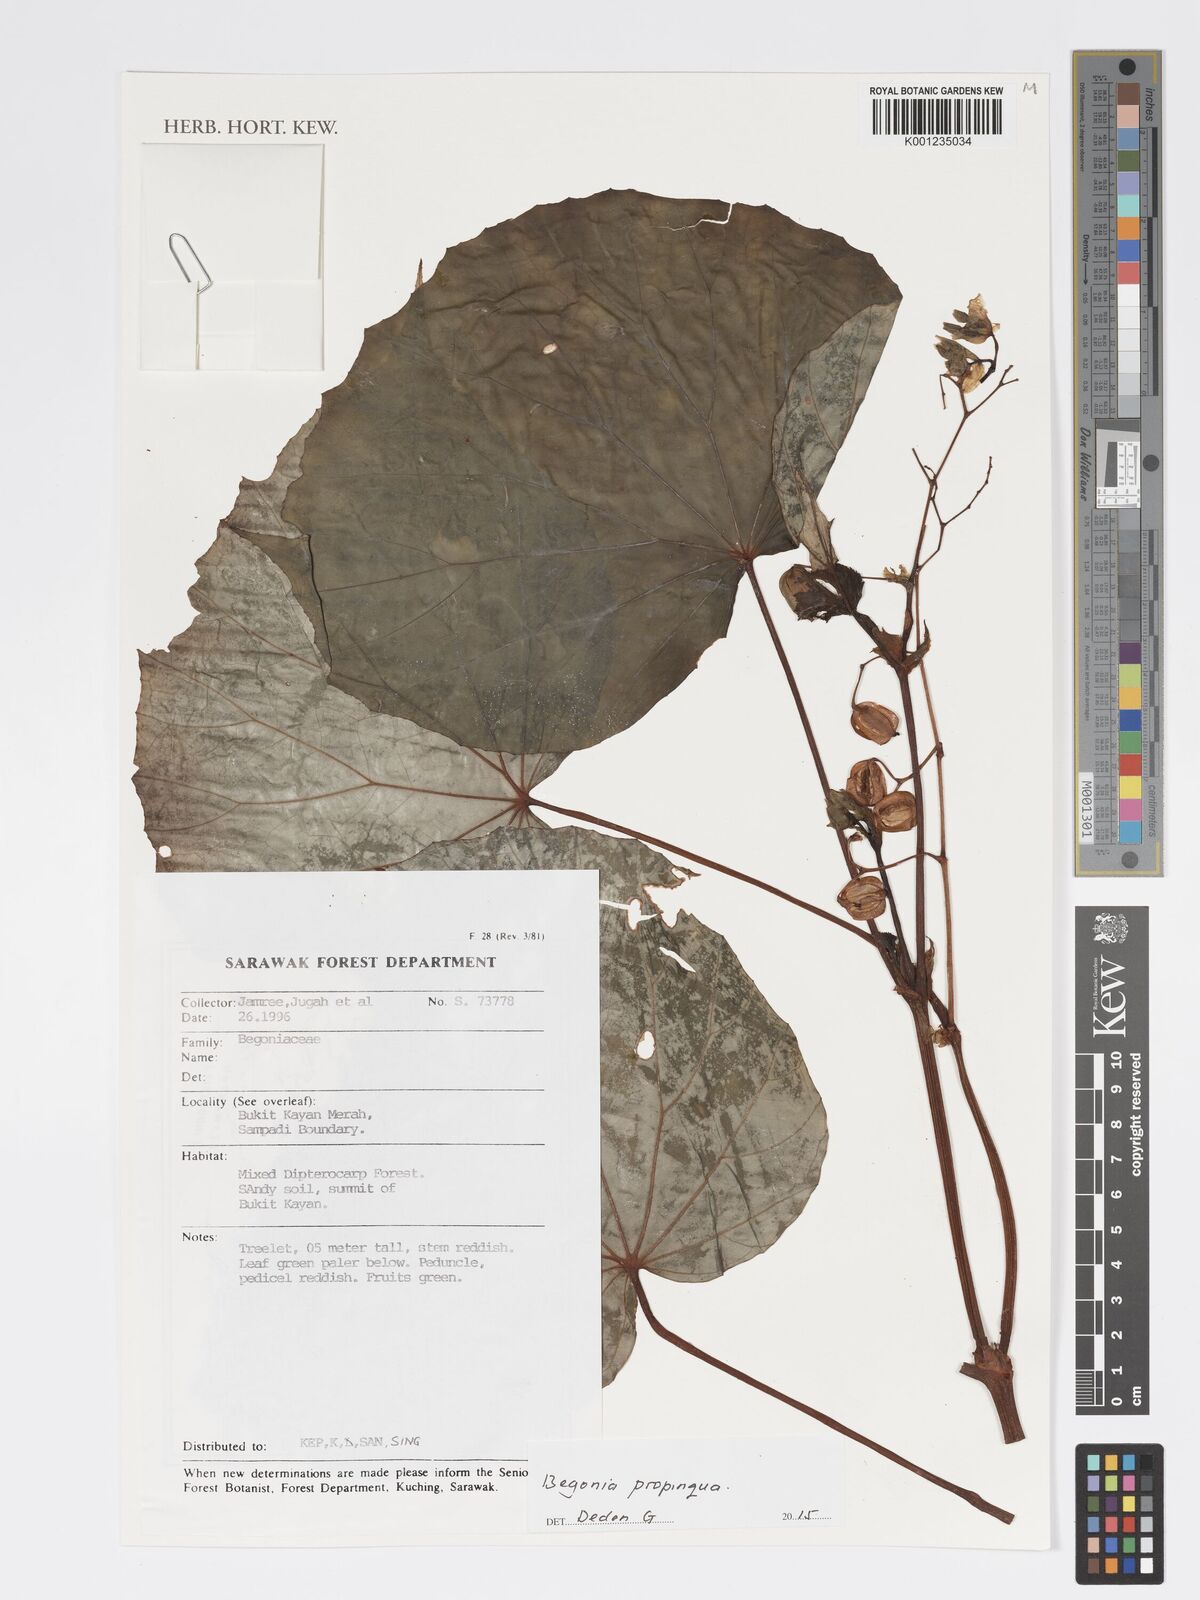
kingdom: Plantae
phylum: Tracheophyta
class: Magnoliopsida
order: Cucurbitales
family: Begoniaceae
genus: Begonia
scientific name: Begonia propinqua
